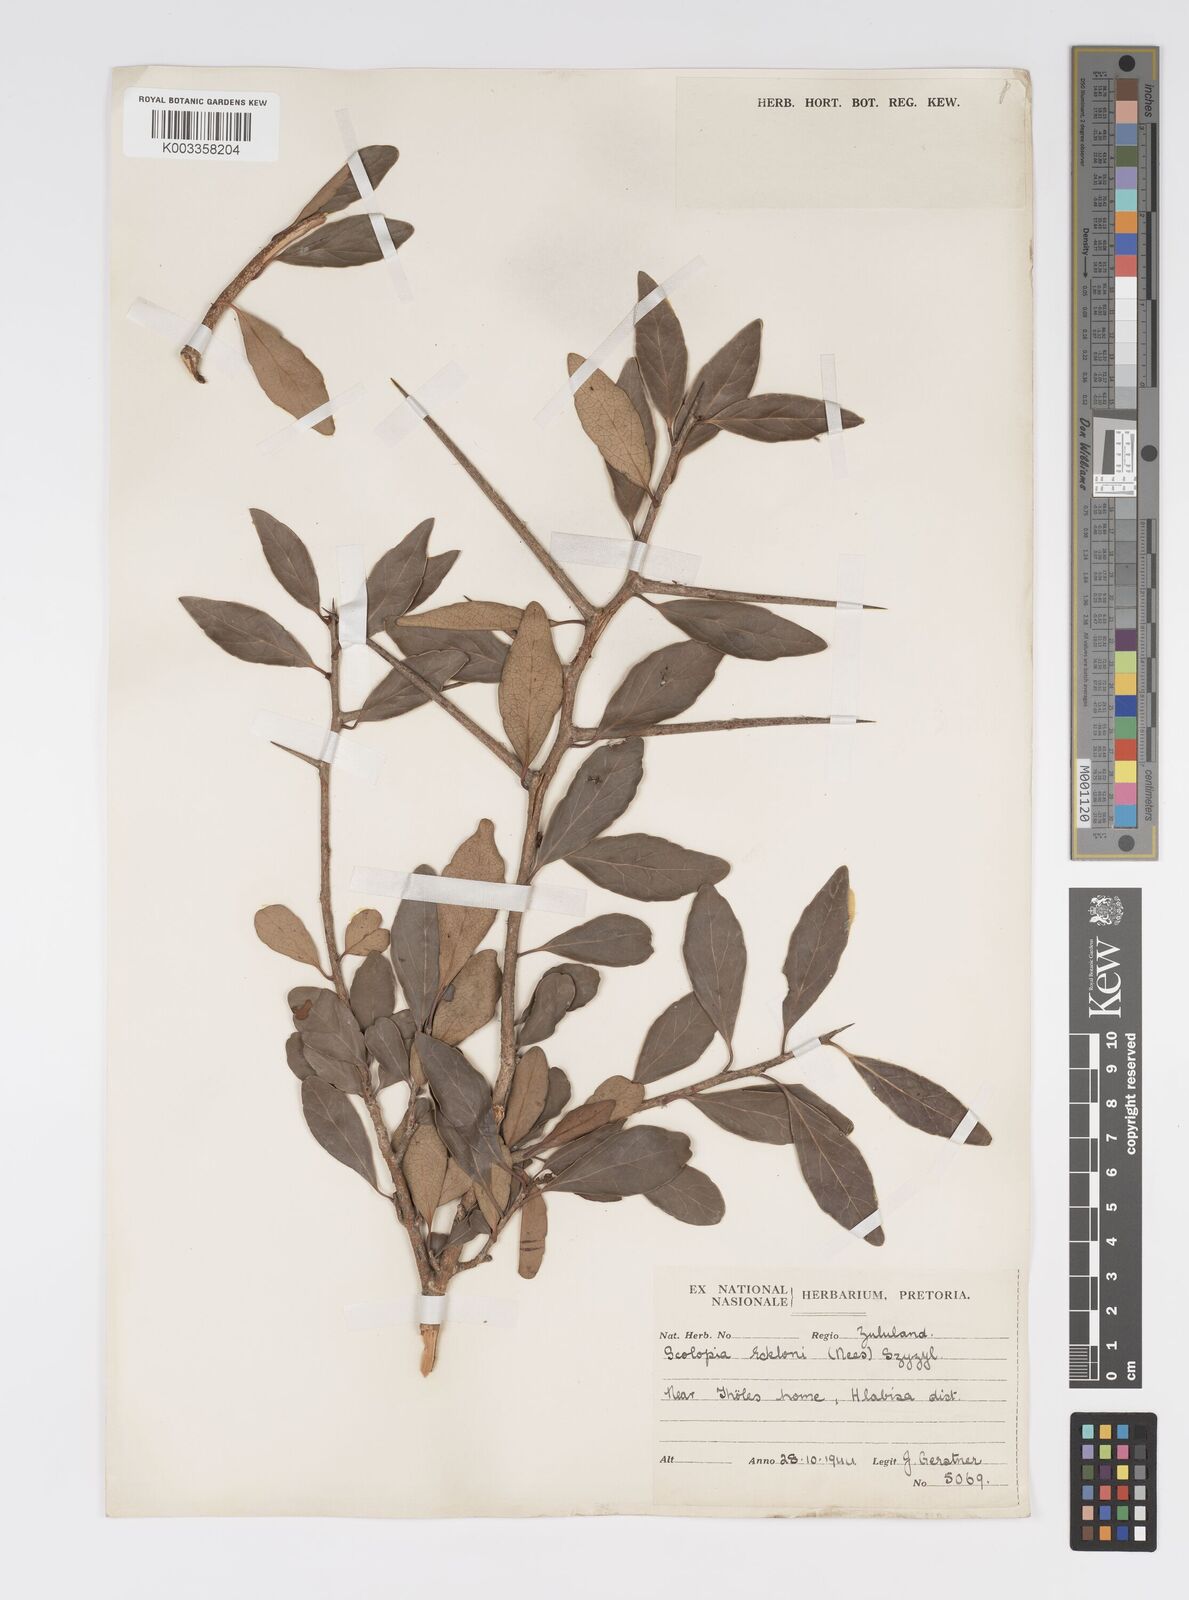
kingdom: Plantae
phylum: Tracheophyta
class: Magnoliopsida
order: Malpighiales
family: Salicaceae
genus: Scolopia
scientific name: Scolopia zeyheri
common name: Thorn pear
